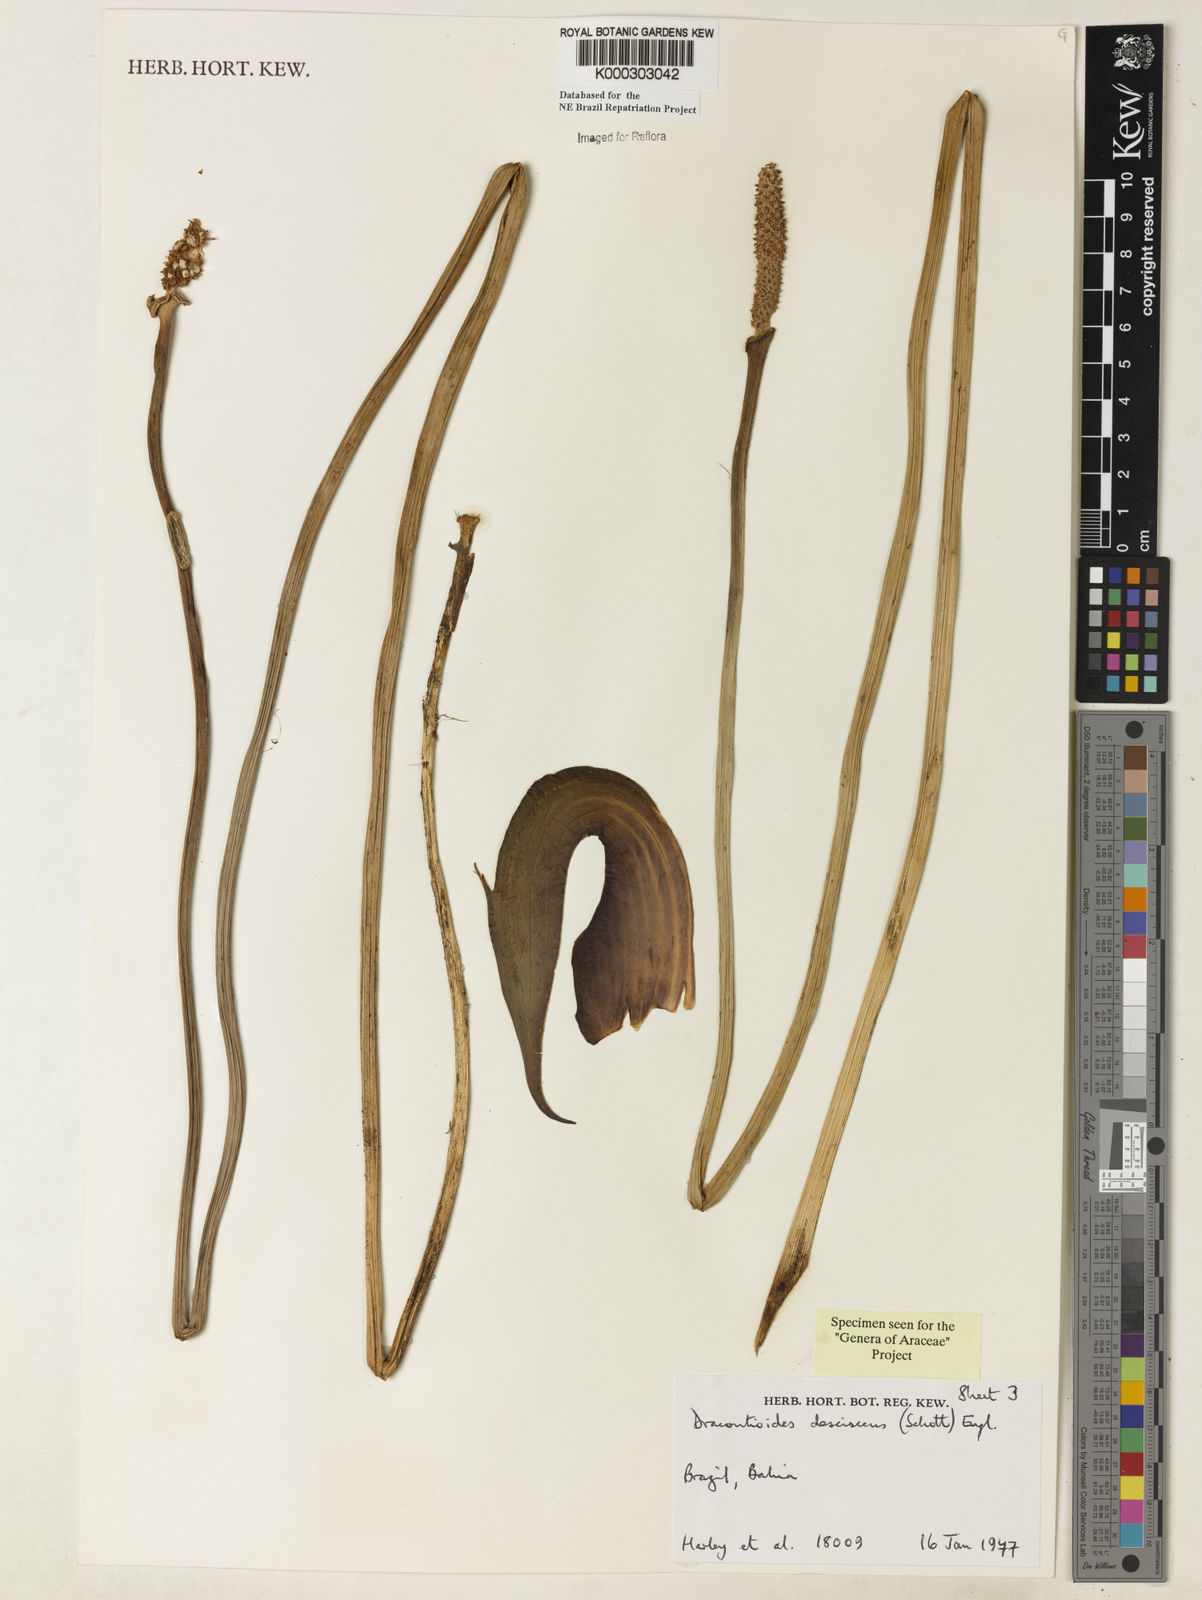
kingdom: Plantae
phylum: Tracheophyta
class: Liliopsida
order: Alismatales
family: Araceae
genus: Dracontioides
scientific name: Dracontioides desciscens
